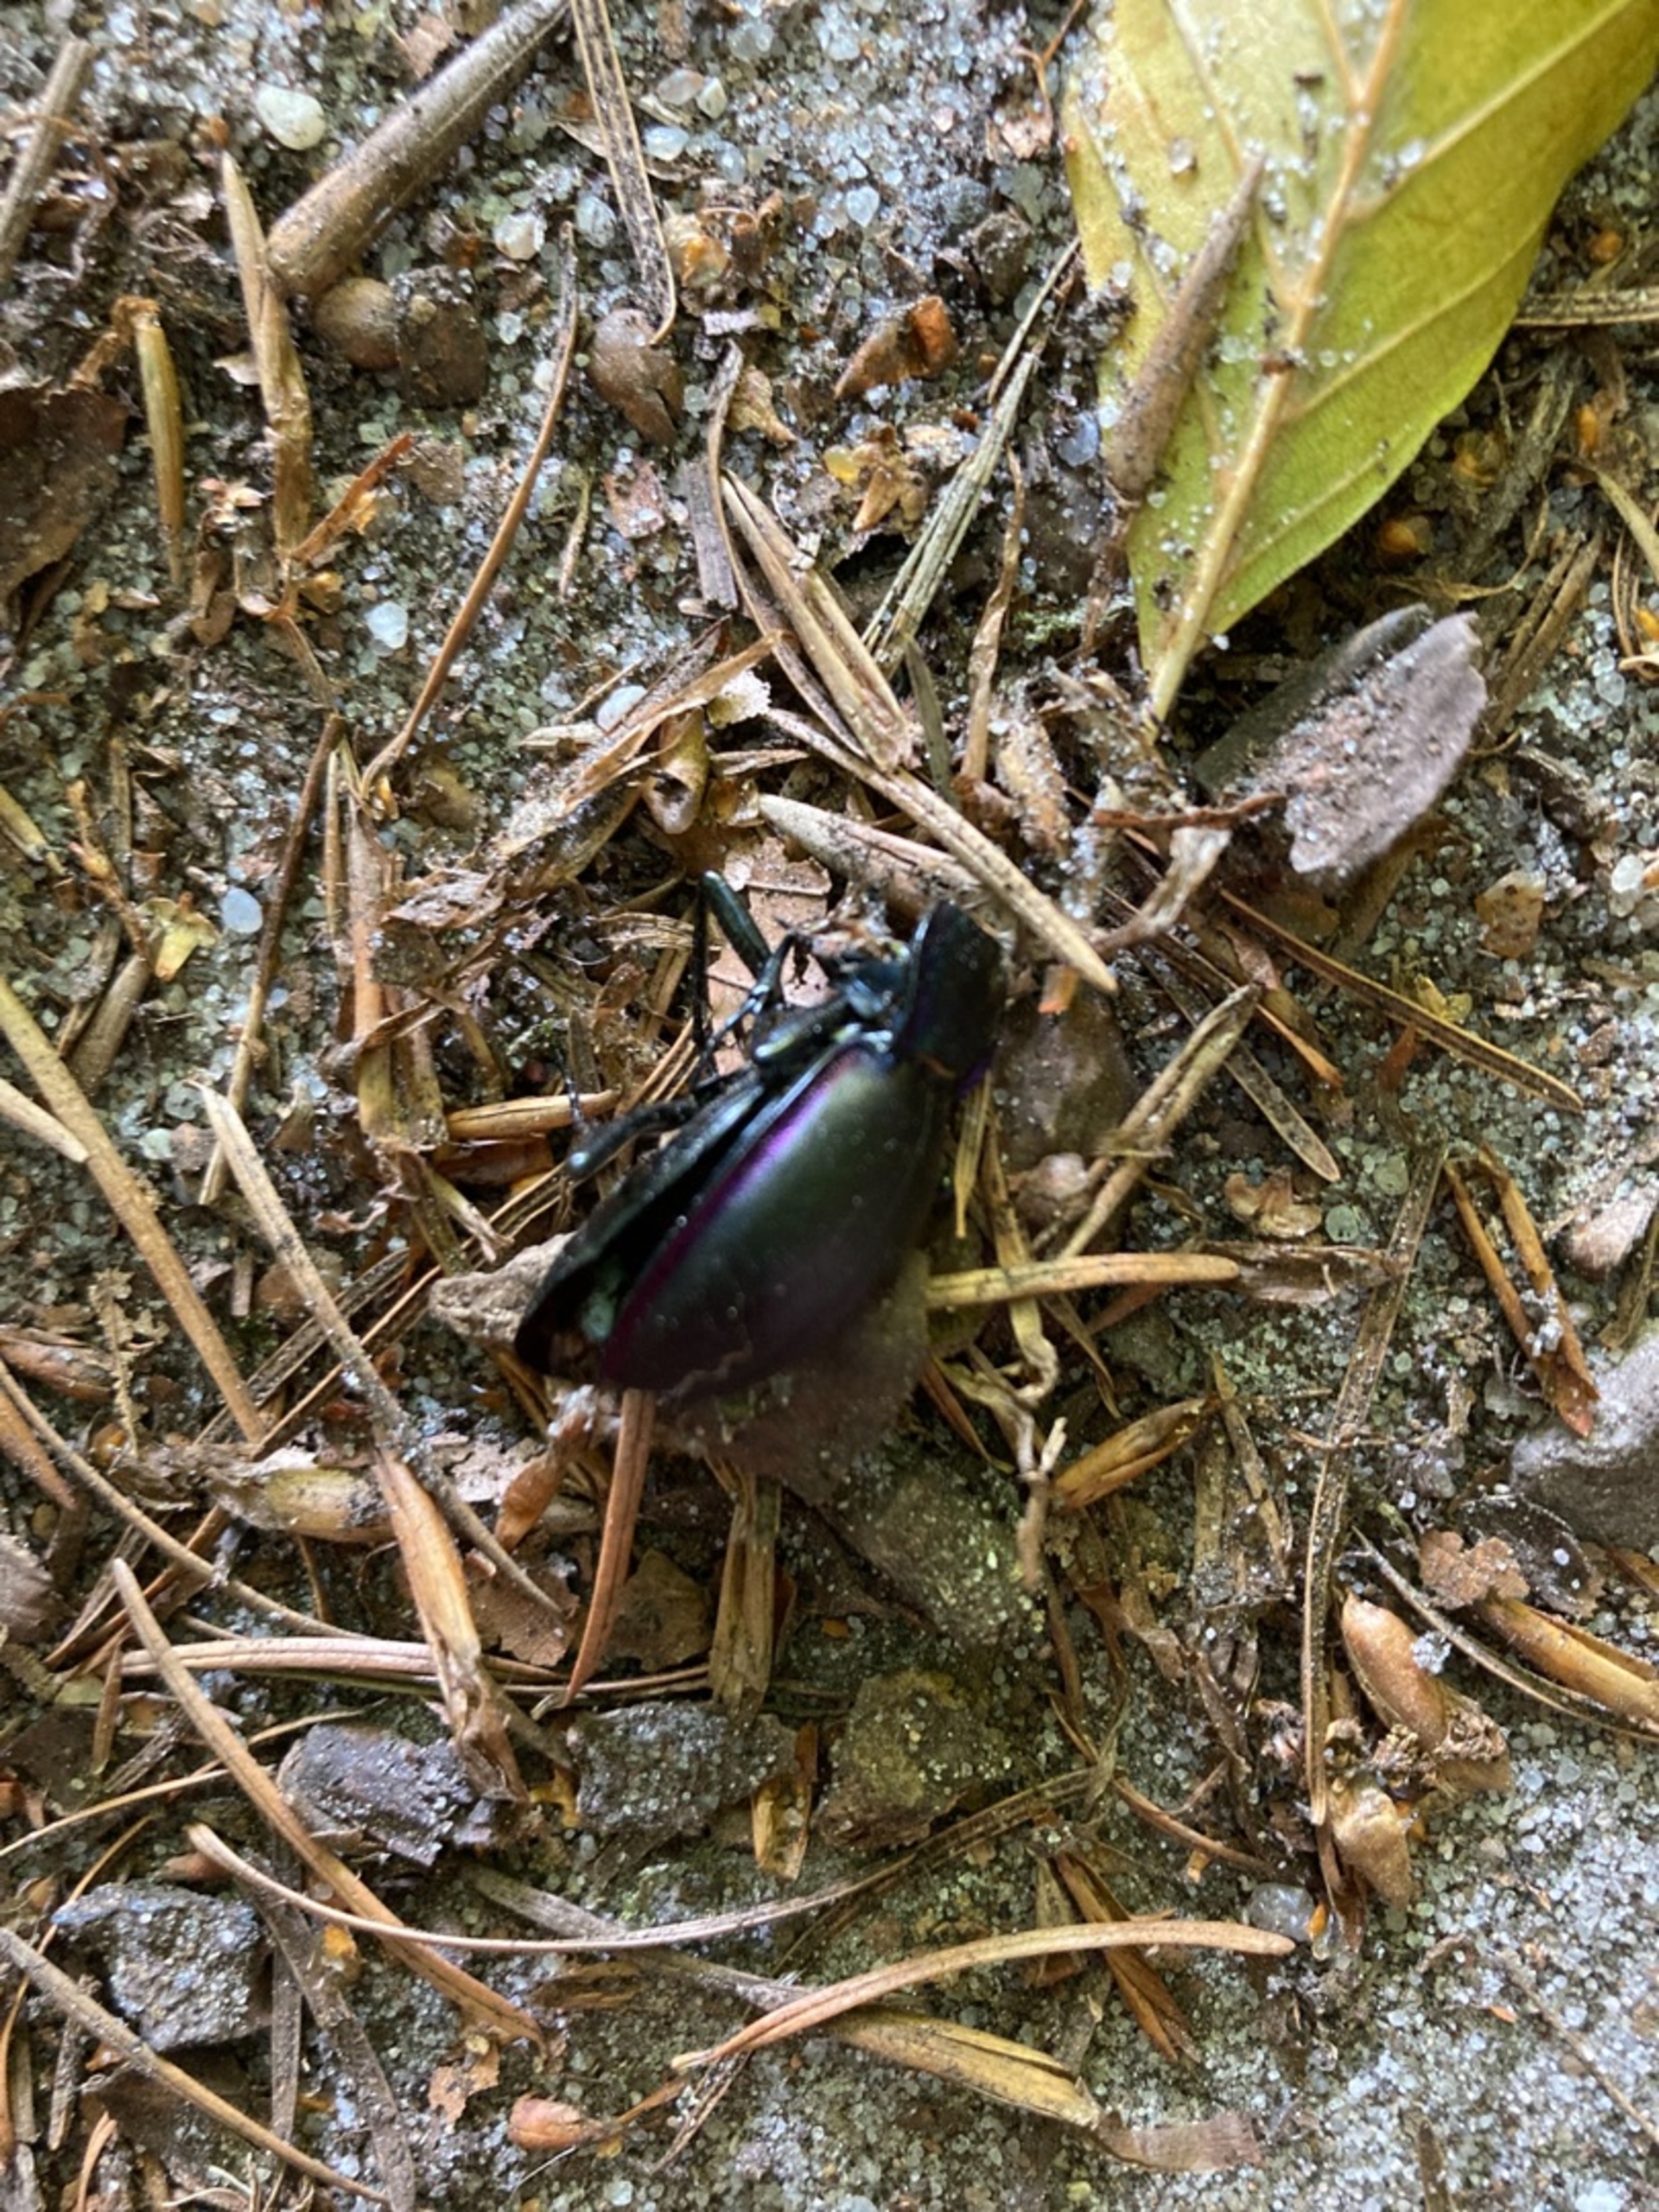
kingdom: Animalia
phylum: Arthropoda
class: Insecta
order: Coleoptera
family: Carabidae
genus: Carabus
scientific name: Carabus violaceus
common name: Violetrandet løber
